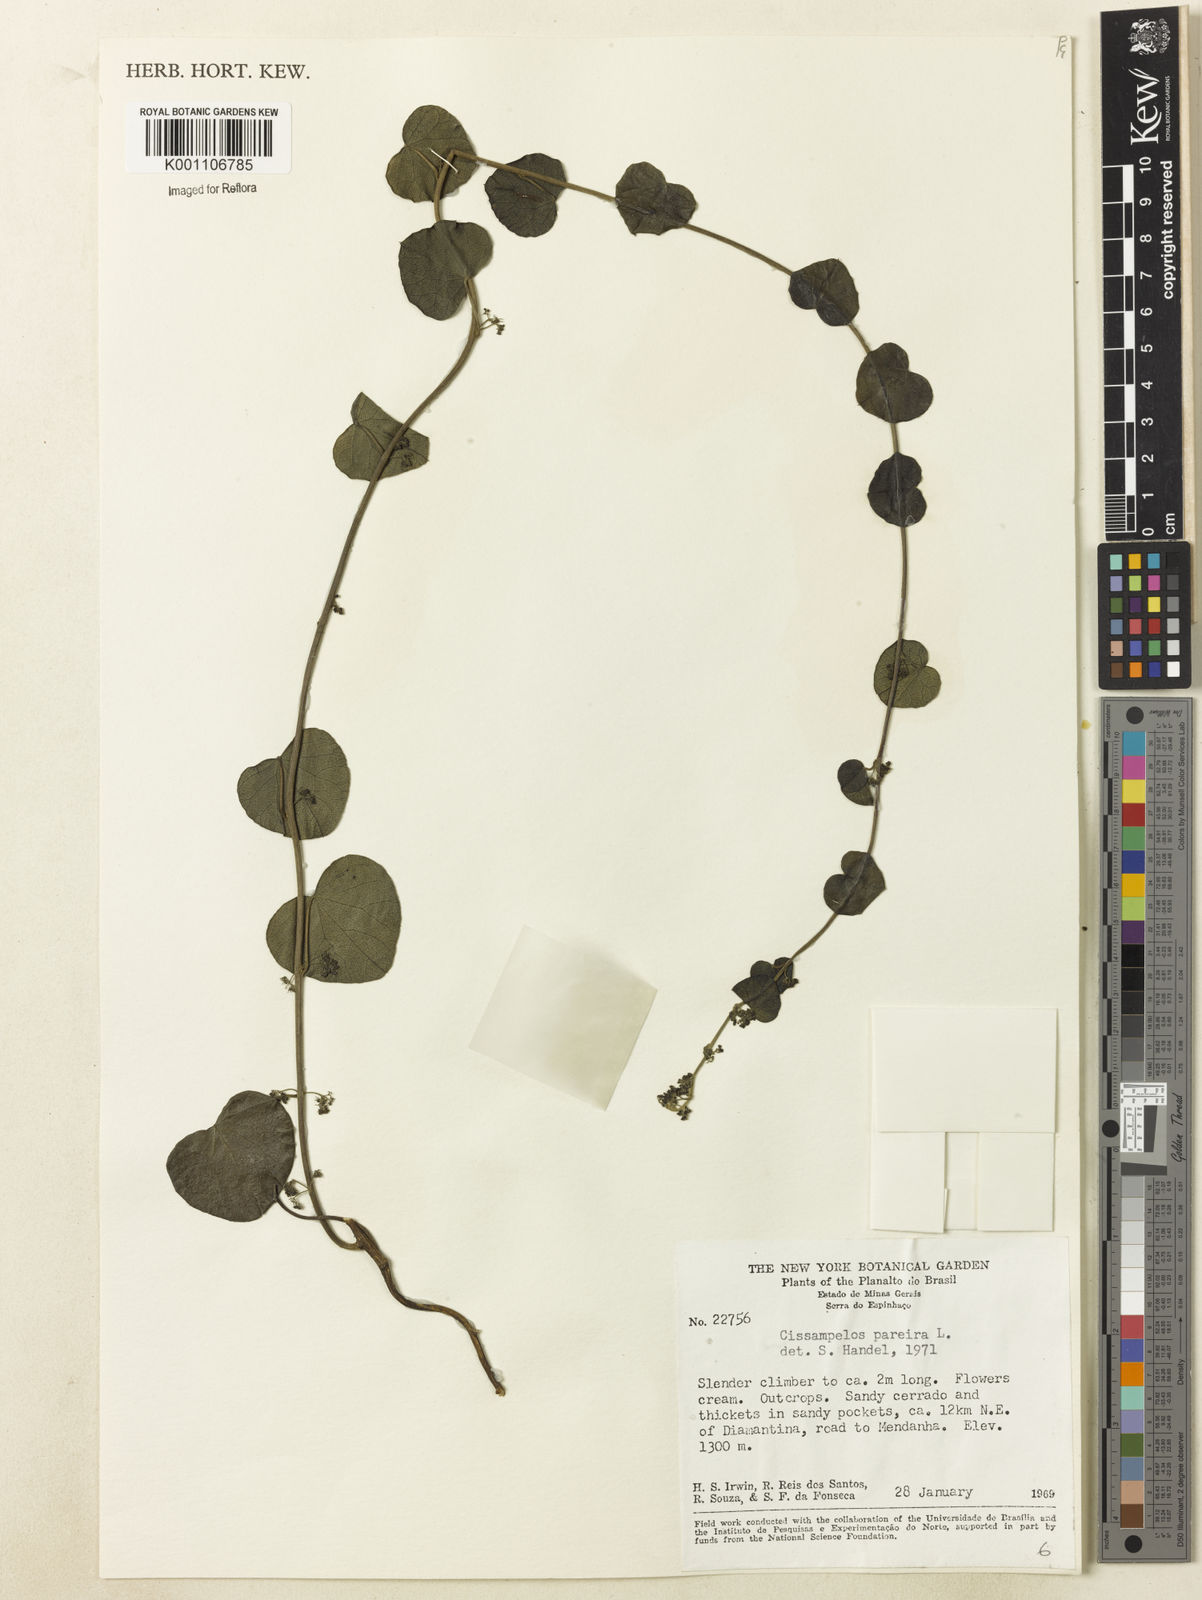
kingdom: Plantae
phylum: Tracheophyta
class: Magnoliopsida
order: Ranunculales
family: Menispermaceae
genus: Cissampelos
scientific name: Cissampelos pareira
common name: Velvetleaf
